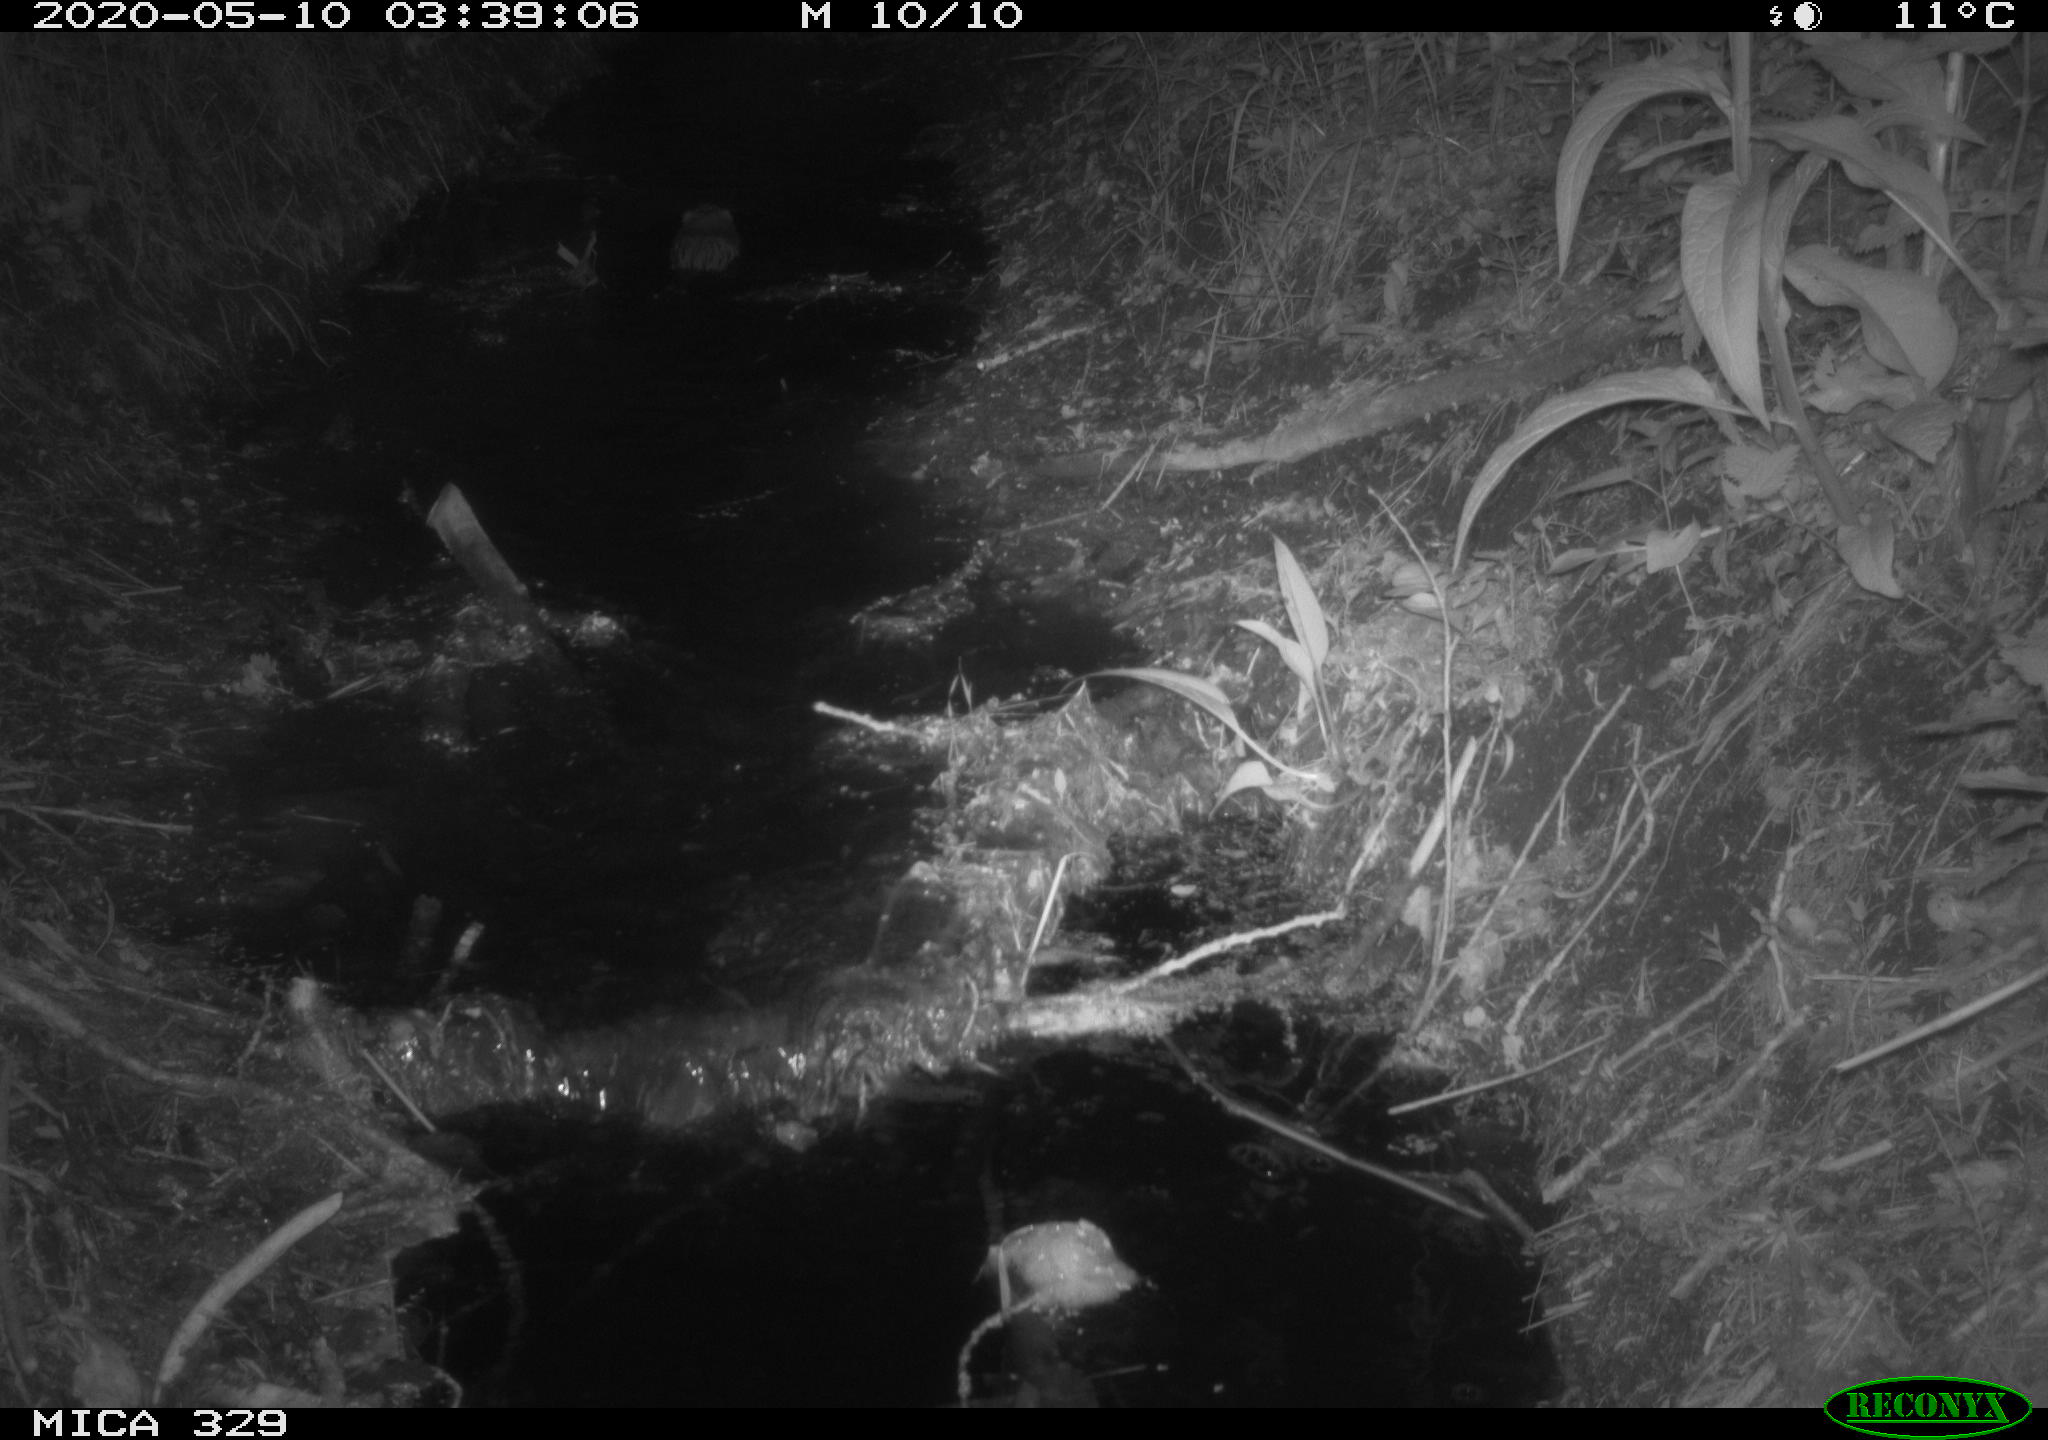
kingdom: Animalia
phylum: Chordata
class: Mammalia
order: Rodentia
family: Cricetidae
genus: Ondatra
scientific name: Ondatra zibethicus
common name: Muskrat
